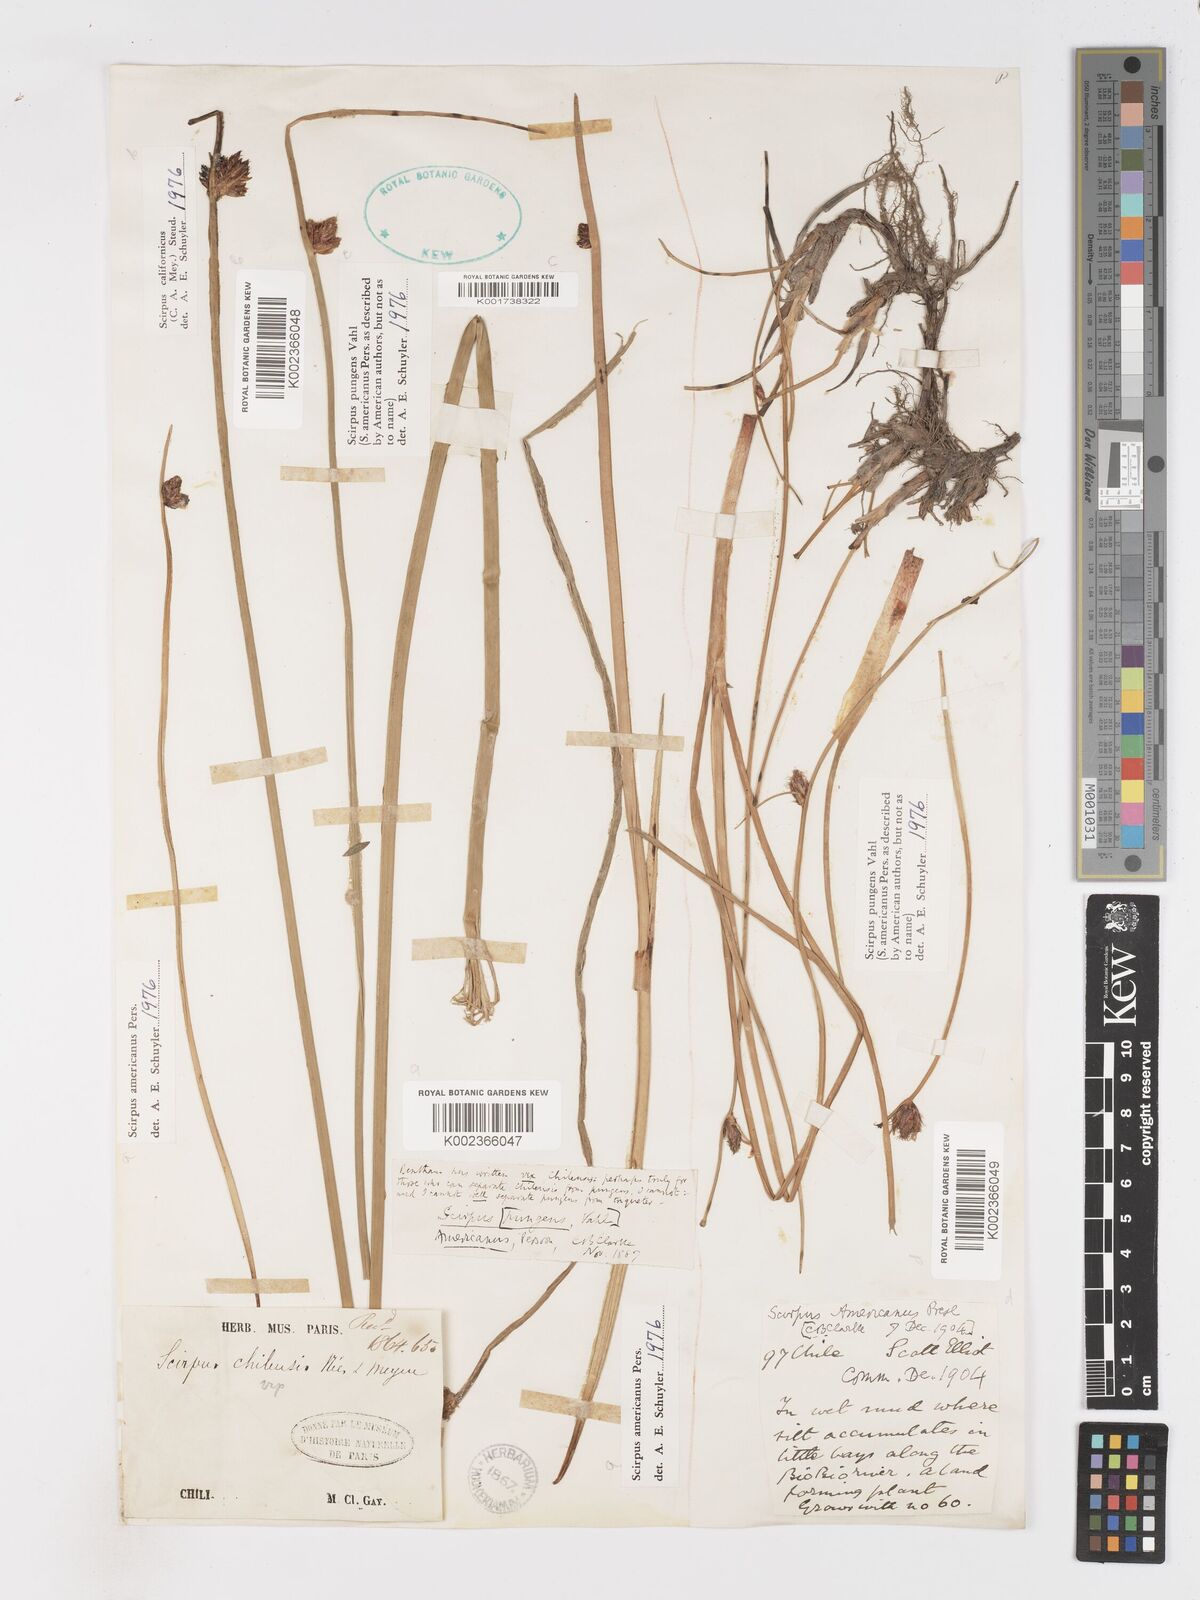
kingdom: Plantae
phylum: Tracheophyta
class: Liliopsida
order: Poales
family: Cyperaceae
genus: Schoenoplectus
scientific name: Schoenoplectus americanus
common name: American three-square bulrush
